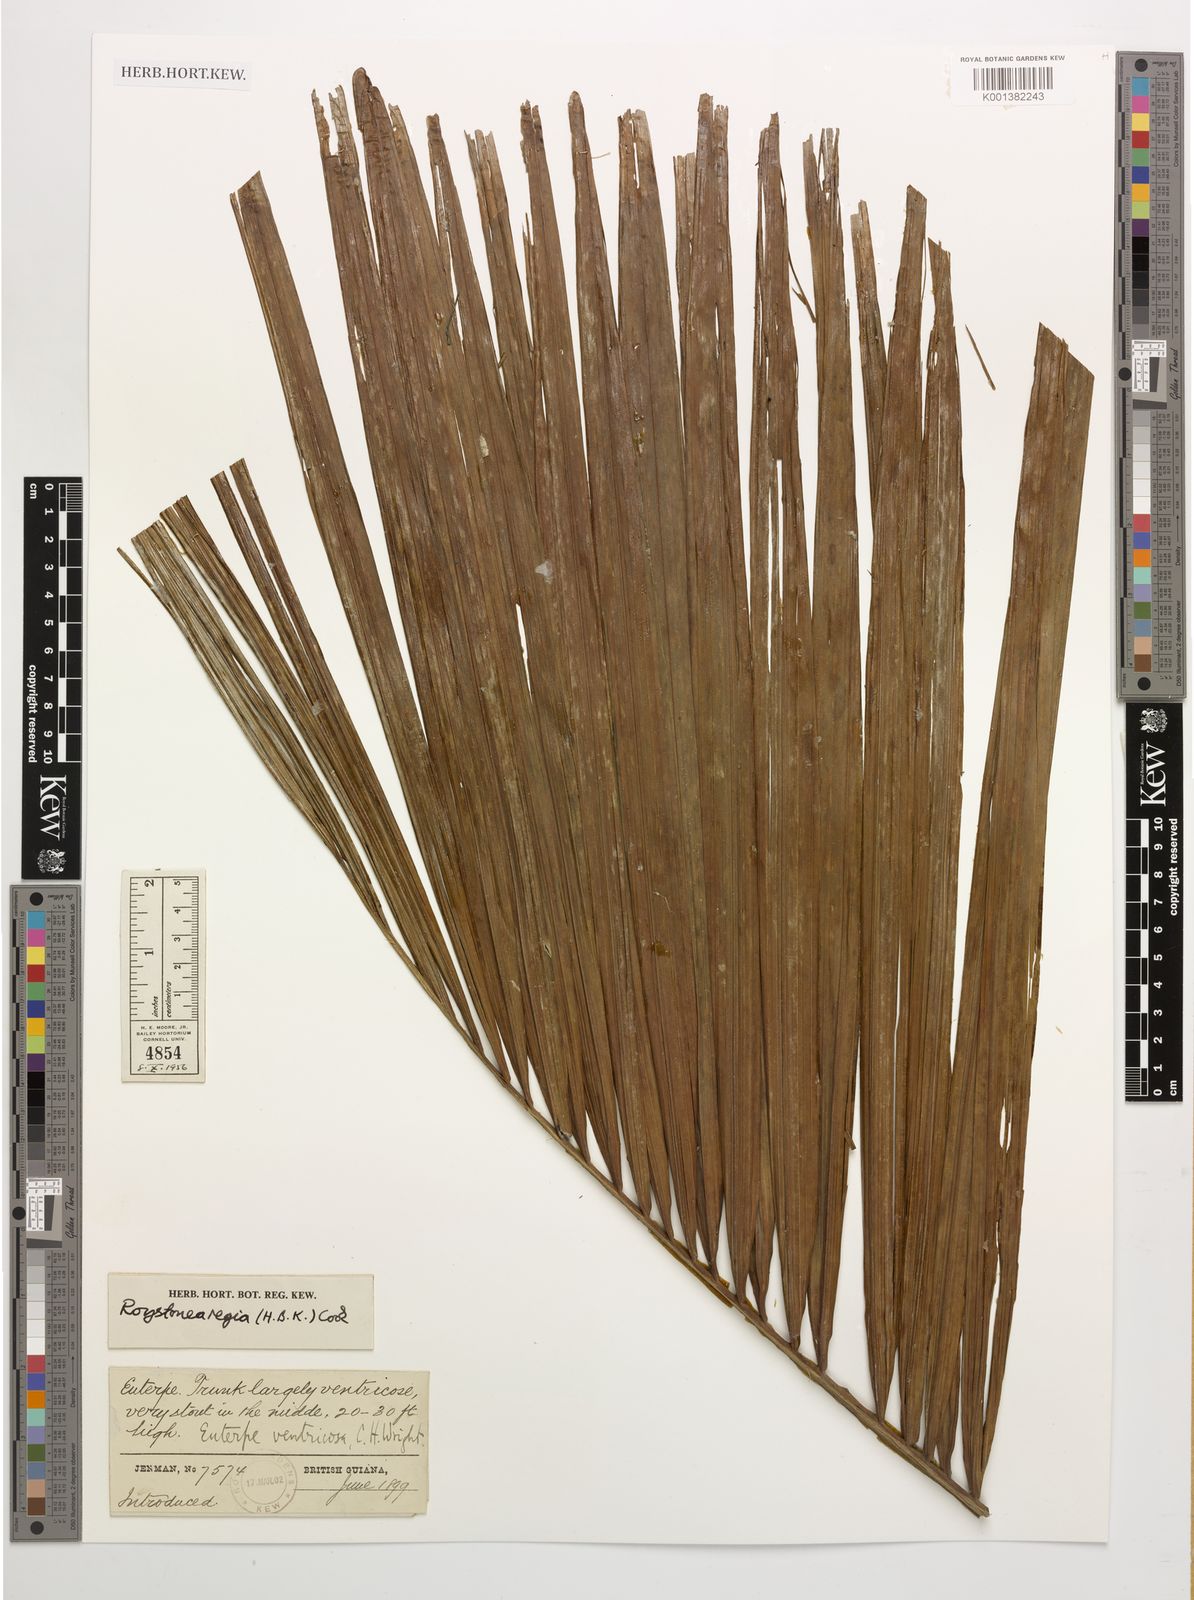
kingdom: Plantae
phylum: Tracheophyta
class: Liliopsida
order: Arecales
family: Arecaceae
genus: Roystonea
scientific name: Roystonea regia
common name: Florida royal palm
